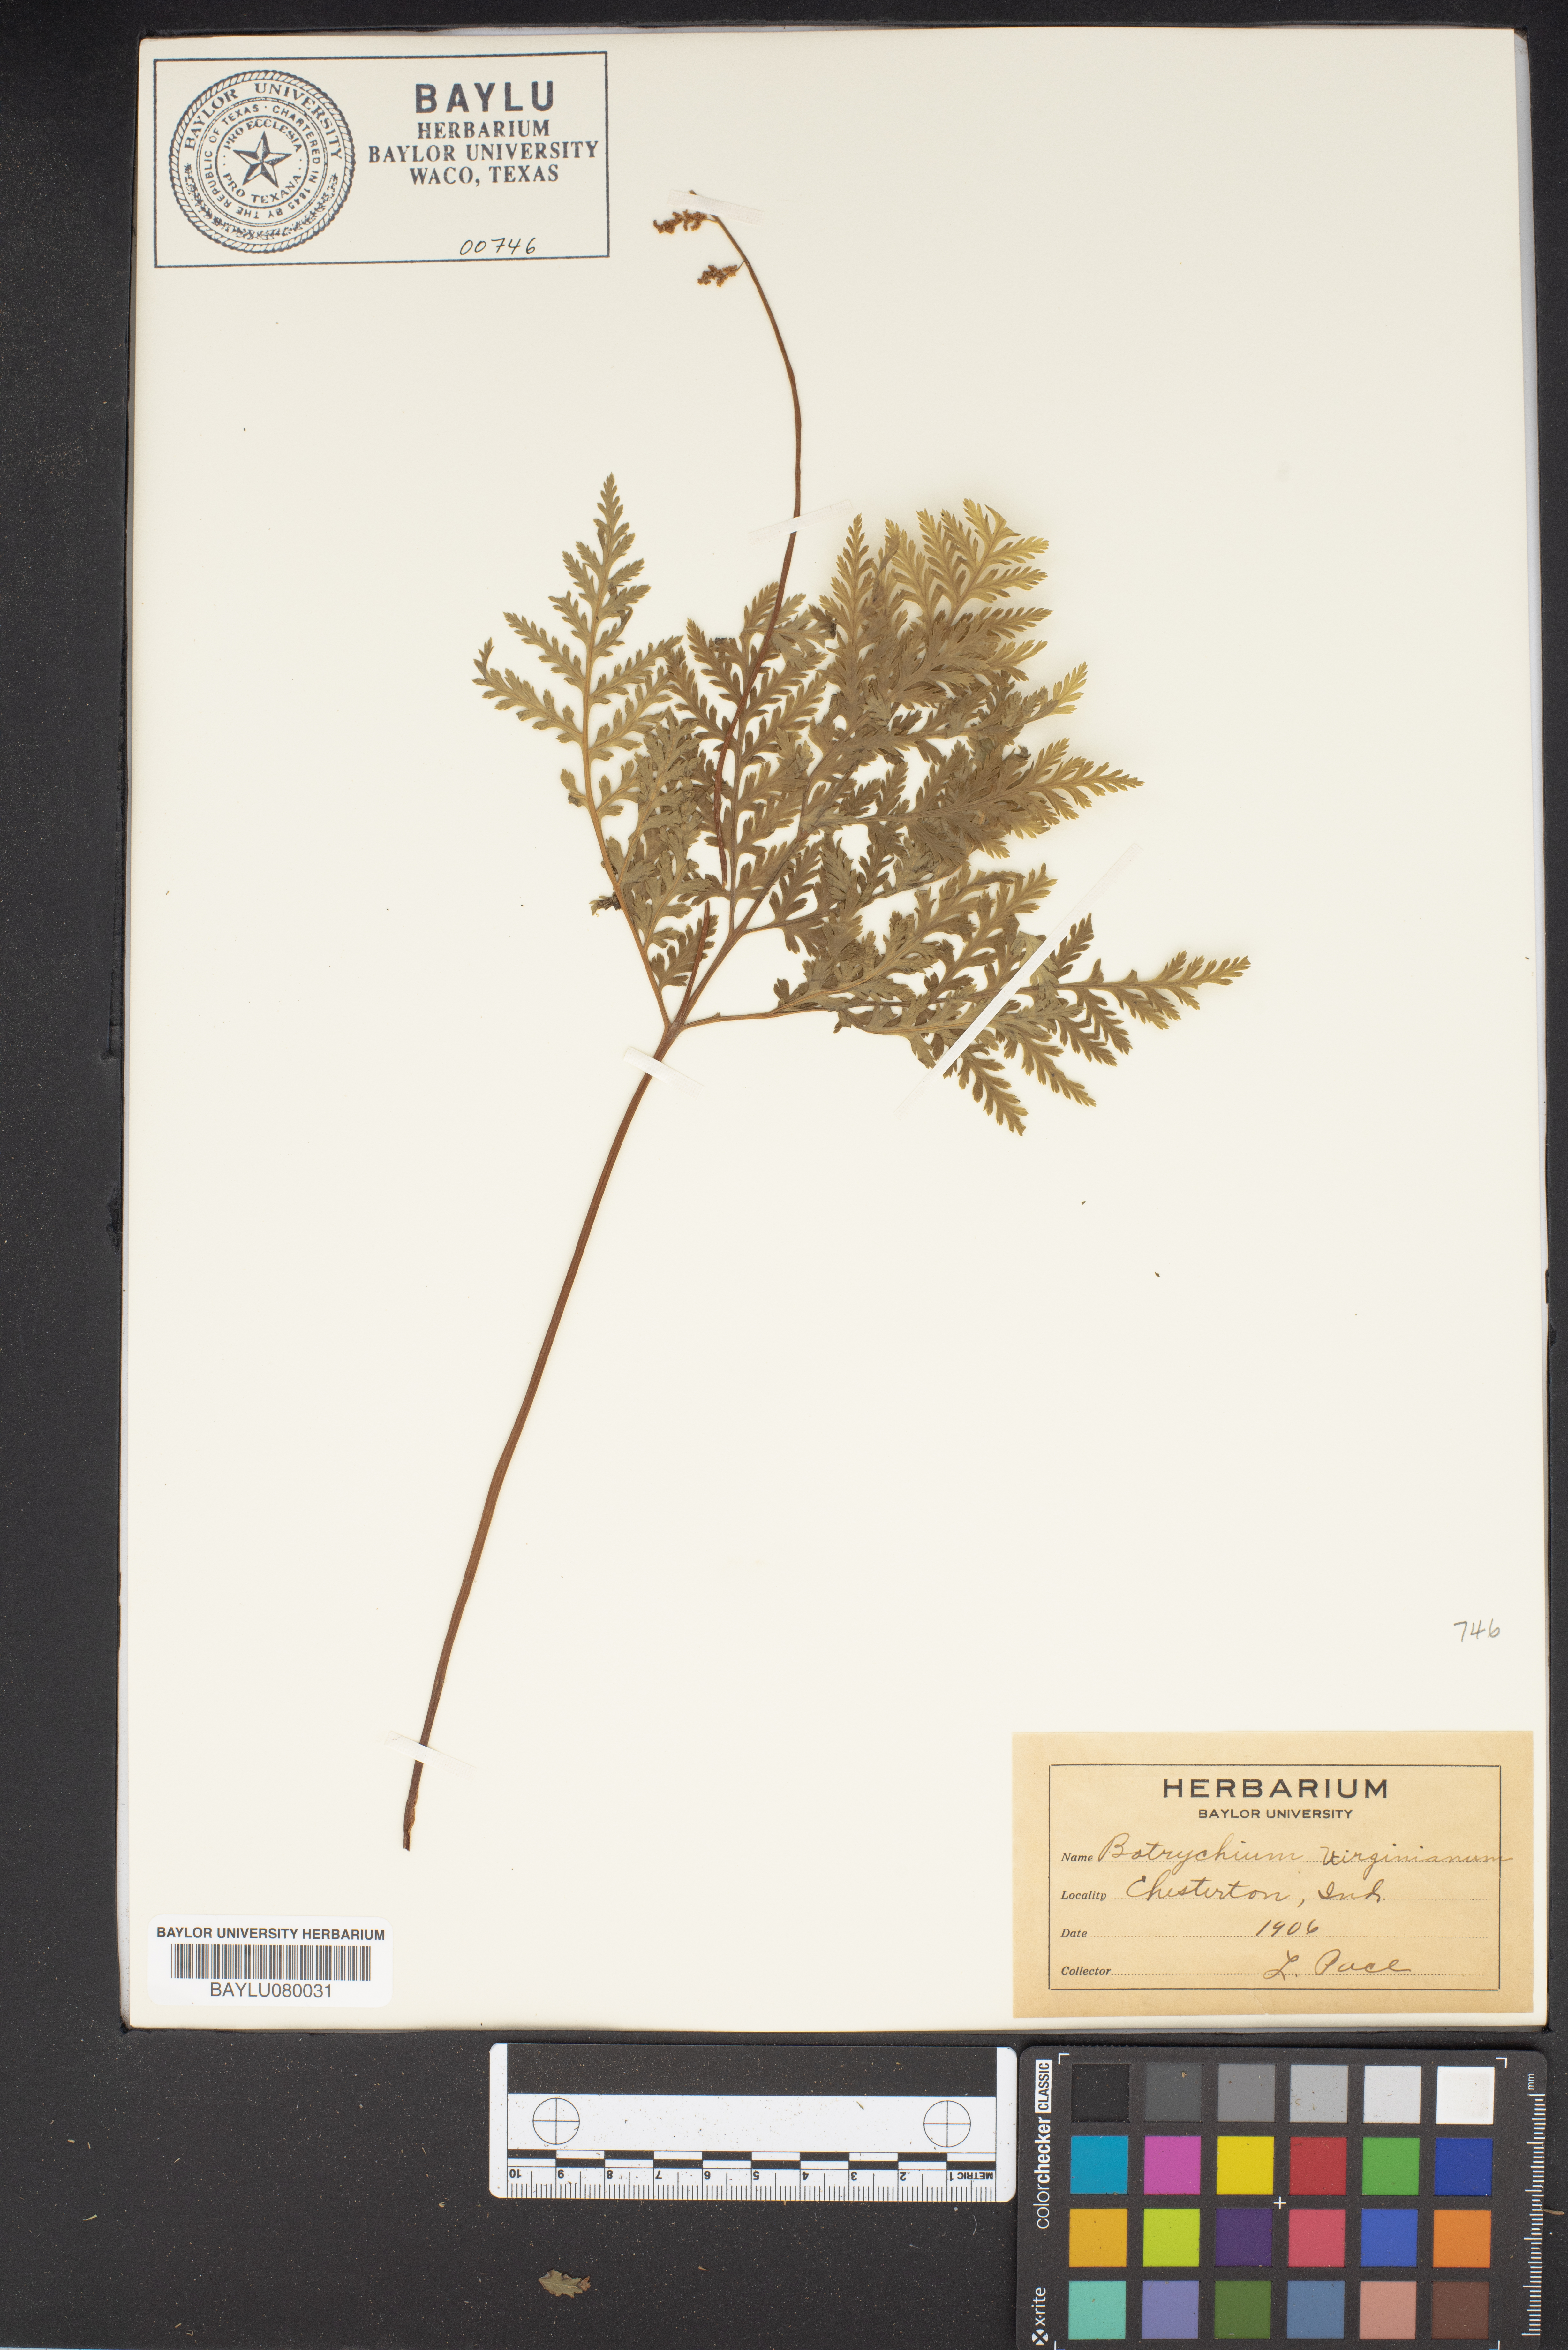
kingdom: Plantae
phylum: Tracheophyta
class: Polypodiopsida
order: Ophioglossales
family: Ophioglossaceae
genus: Botrypus
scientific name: Botrypus virginianus
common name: Common grapefern
